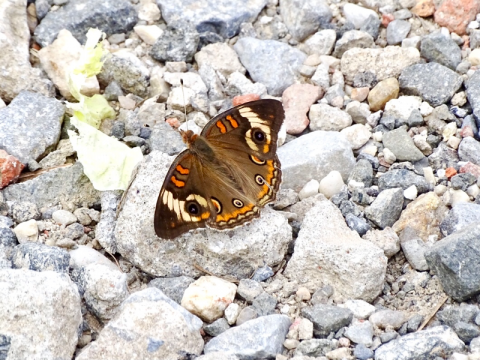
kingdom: Animalia
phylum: Arthropoda
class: Insecta
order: Lepidoptera
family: Nymphalidae
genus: Junonia
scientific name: Junonia coenia
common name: Common Buckeye
